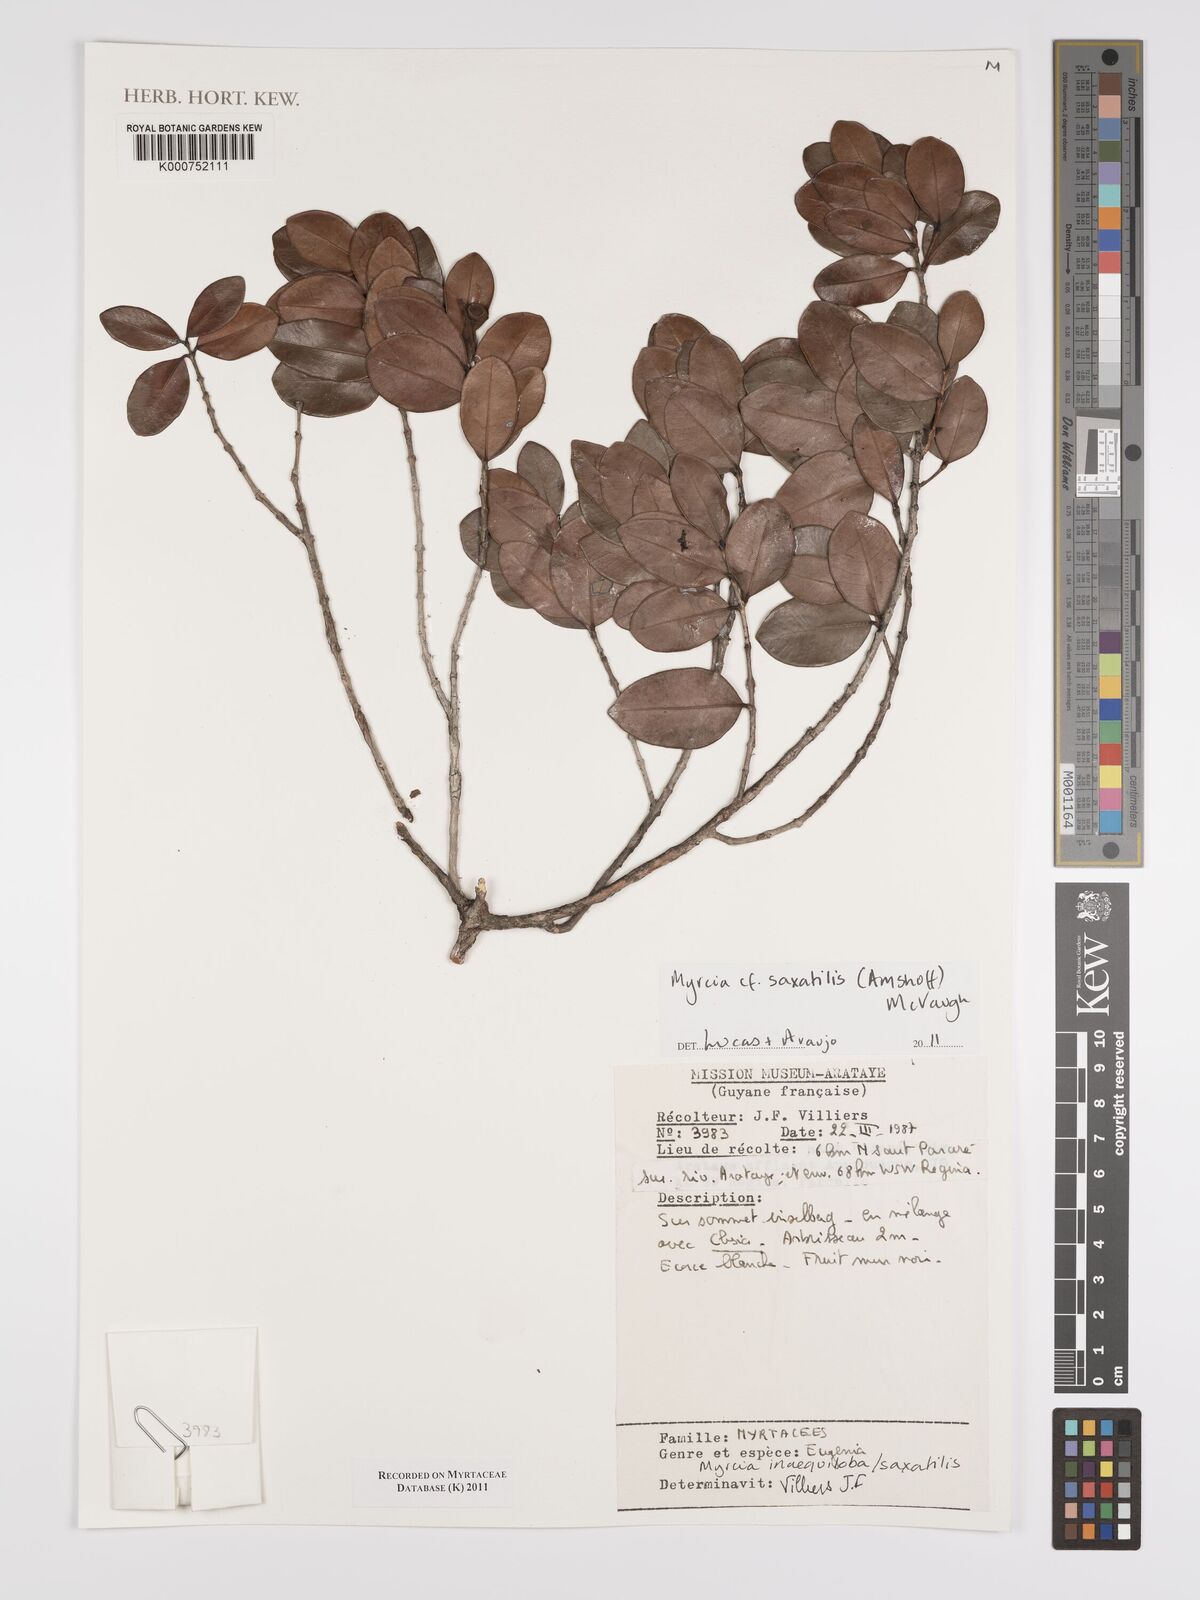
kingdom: Plantae
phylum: Tracheophyta
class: Magnoliopsida
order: Myrtales
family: Myrtaceae
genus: Myrcia
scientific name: Myrcia saxatilis
